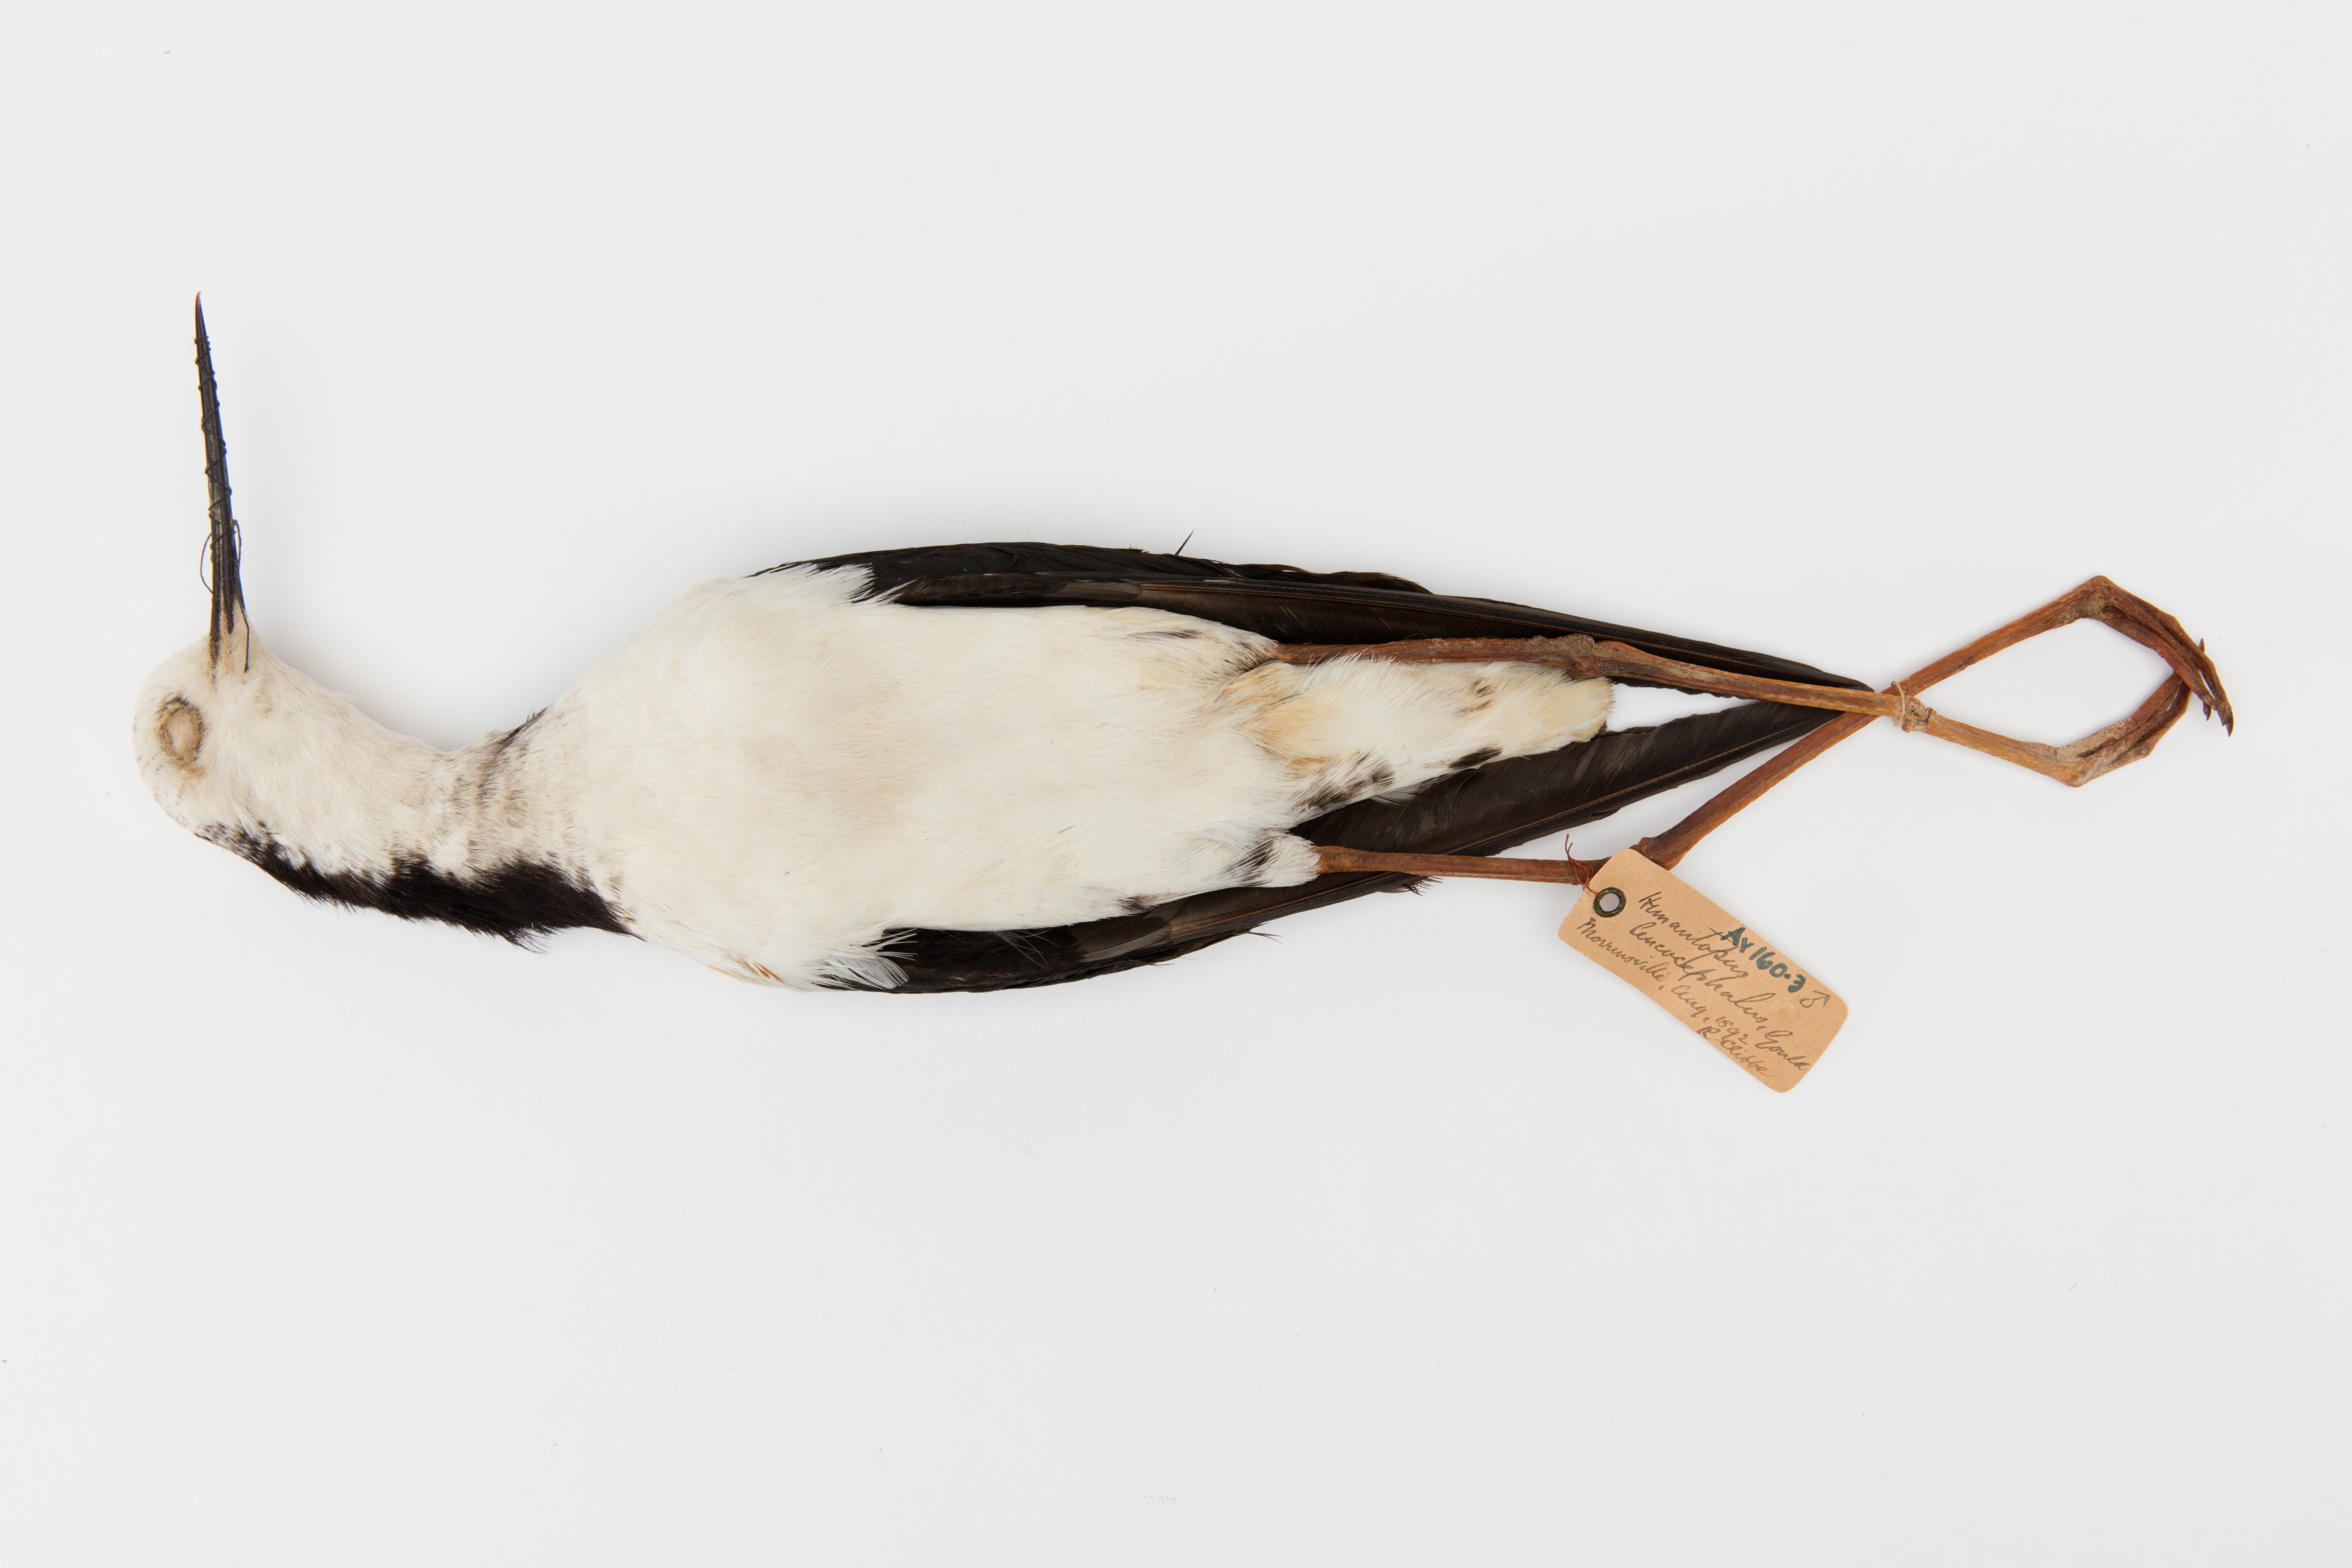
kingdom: Animalia
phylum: Chordata
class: Aves
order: Charadriiformes
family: Recurvirostridae
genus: Himantopus
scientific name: Himantopus himantopus
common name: Black-winged stilt
